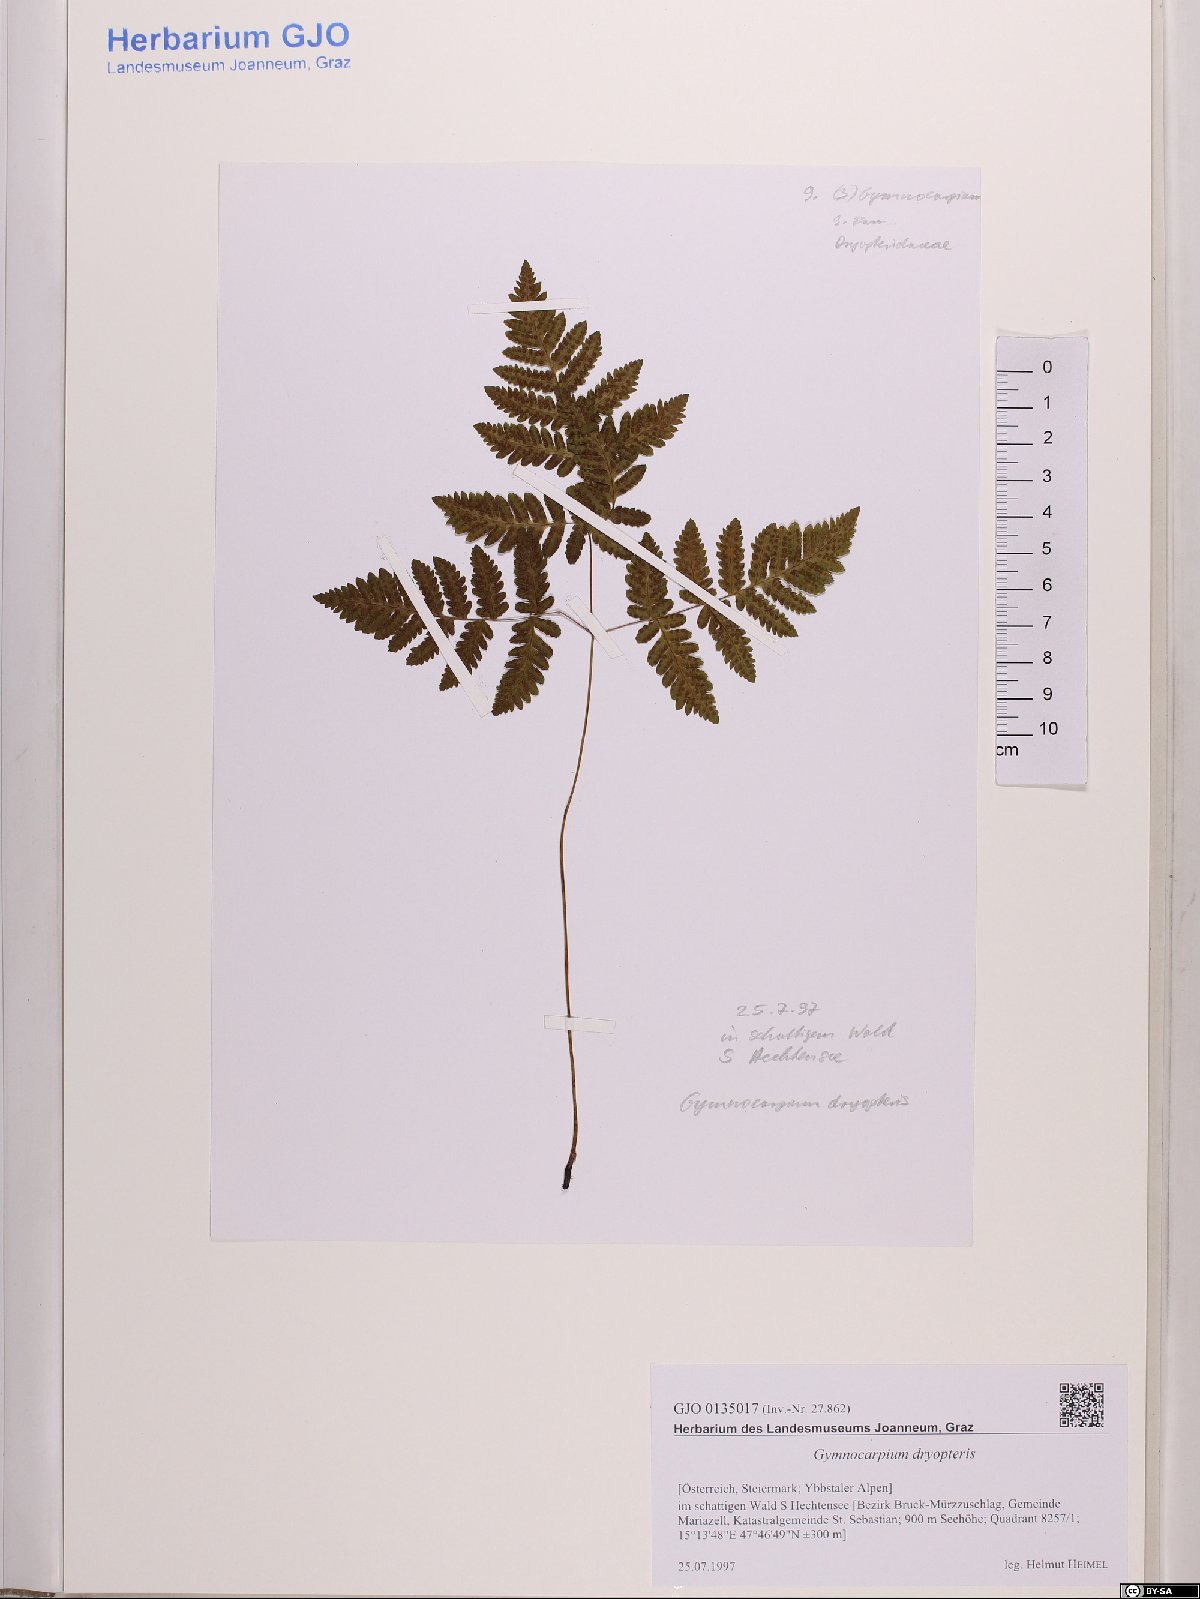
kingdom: Plantae
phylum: Tracheophyta
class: Polypodiopsida
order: Polypodiales
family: Cystopteridaceae
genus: Gymnocarpium
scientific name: Gymnocarpium dryopteris
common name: Oak fern
